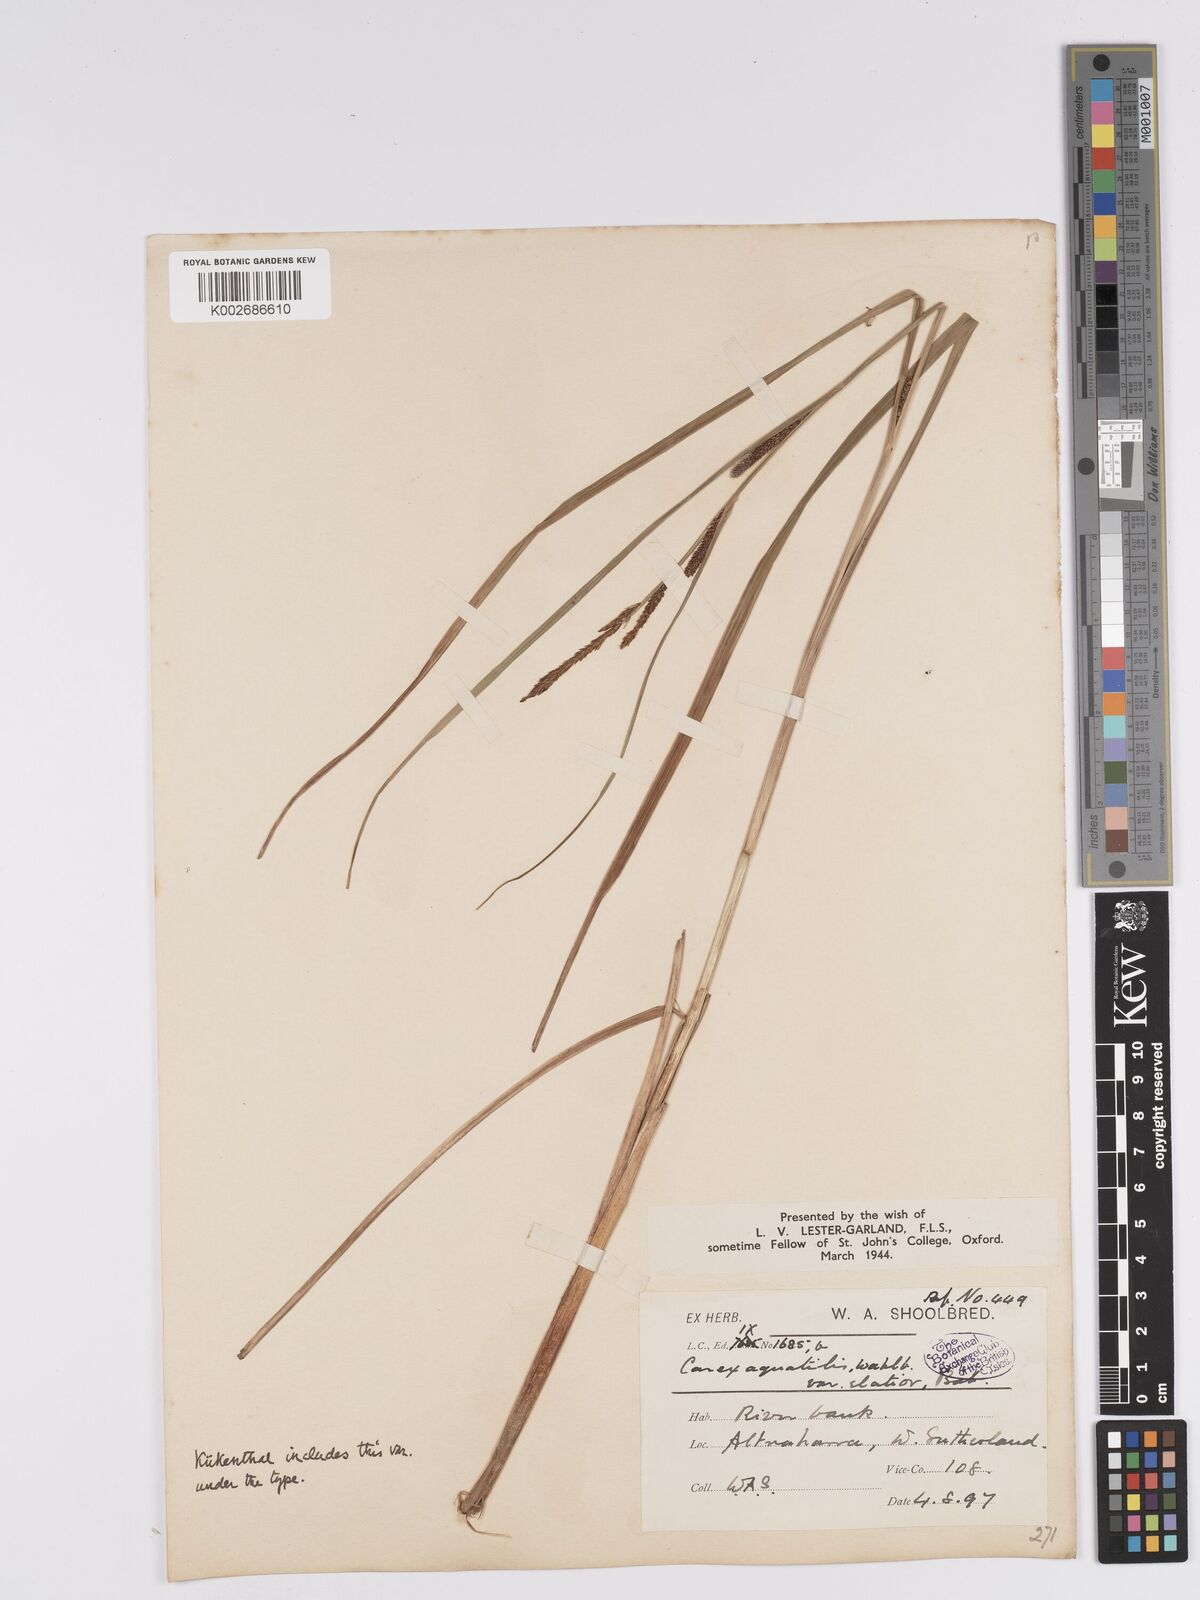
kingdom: Plantae
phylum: Tracheophyta
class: Liliopsida
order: Poales
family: Cyperaceae
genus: Carex
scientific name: Carex aquatilis
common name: Water sedge
